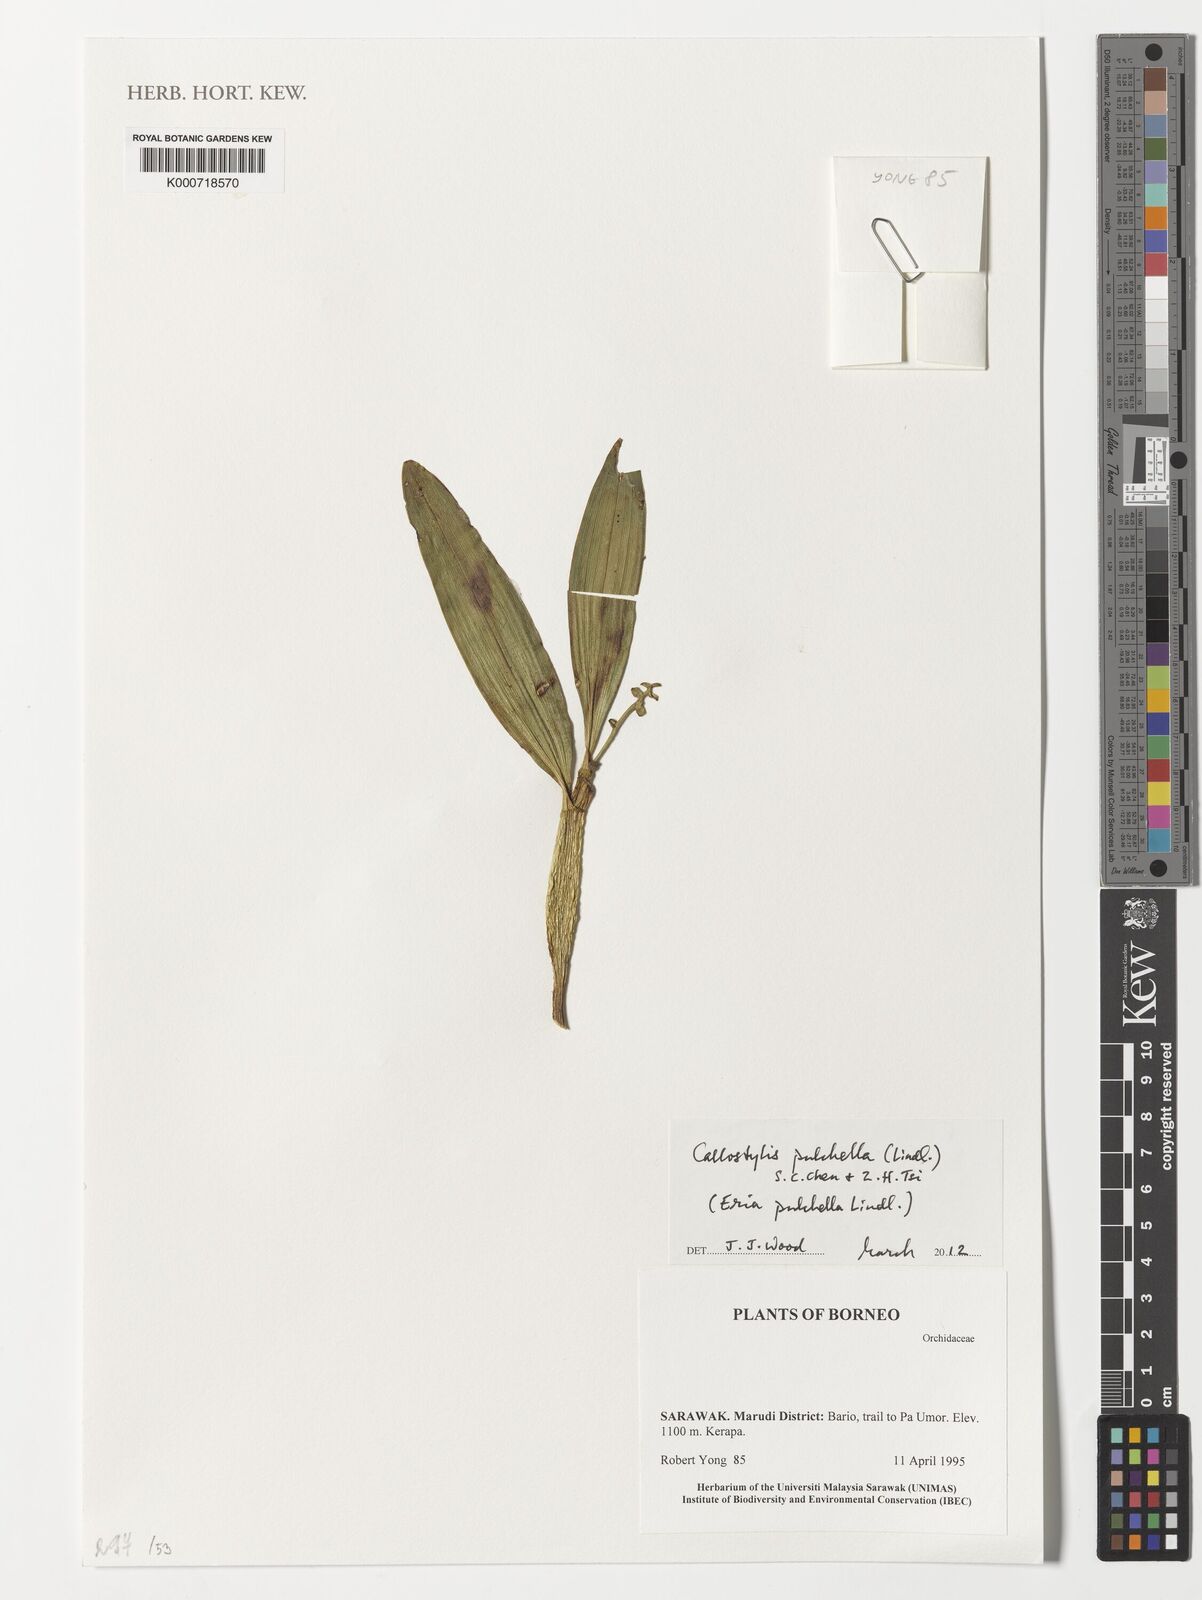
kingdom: Plantae
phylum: Tracheophyta
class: Liliopsida
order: Asparagales
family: Orchidaceae
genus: Callostylis
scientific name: Callostylis pulchella
